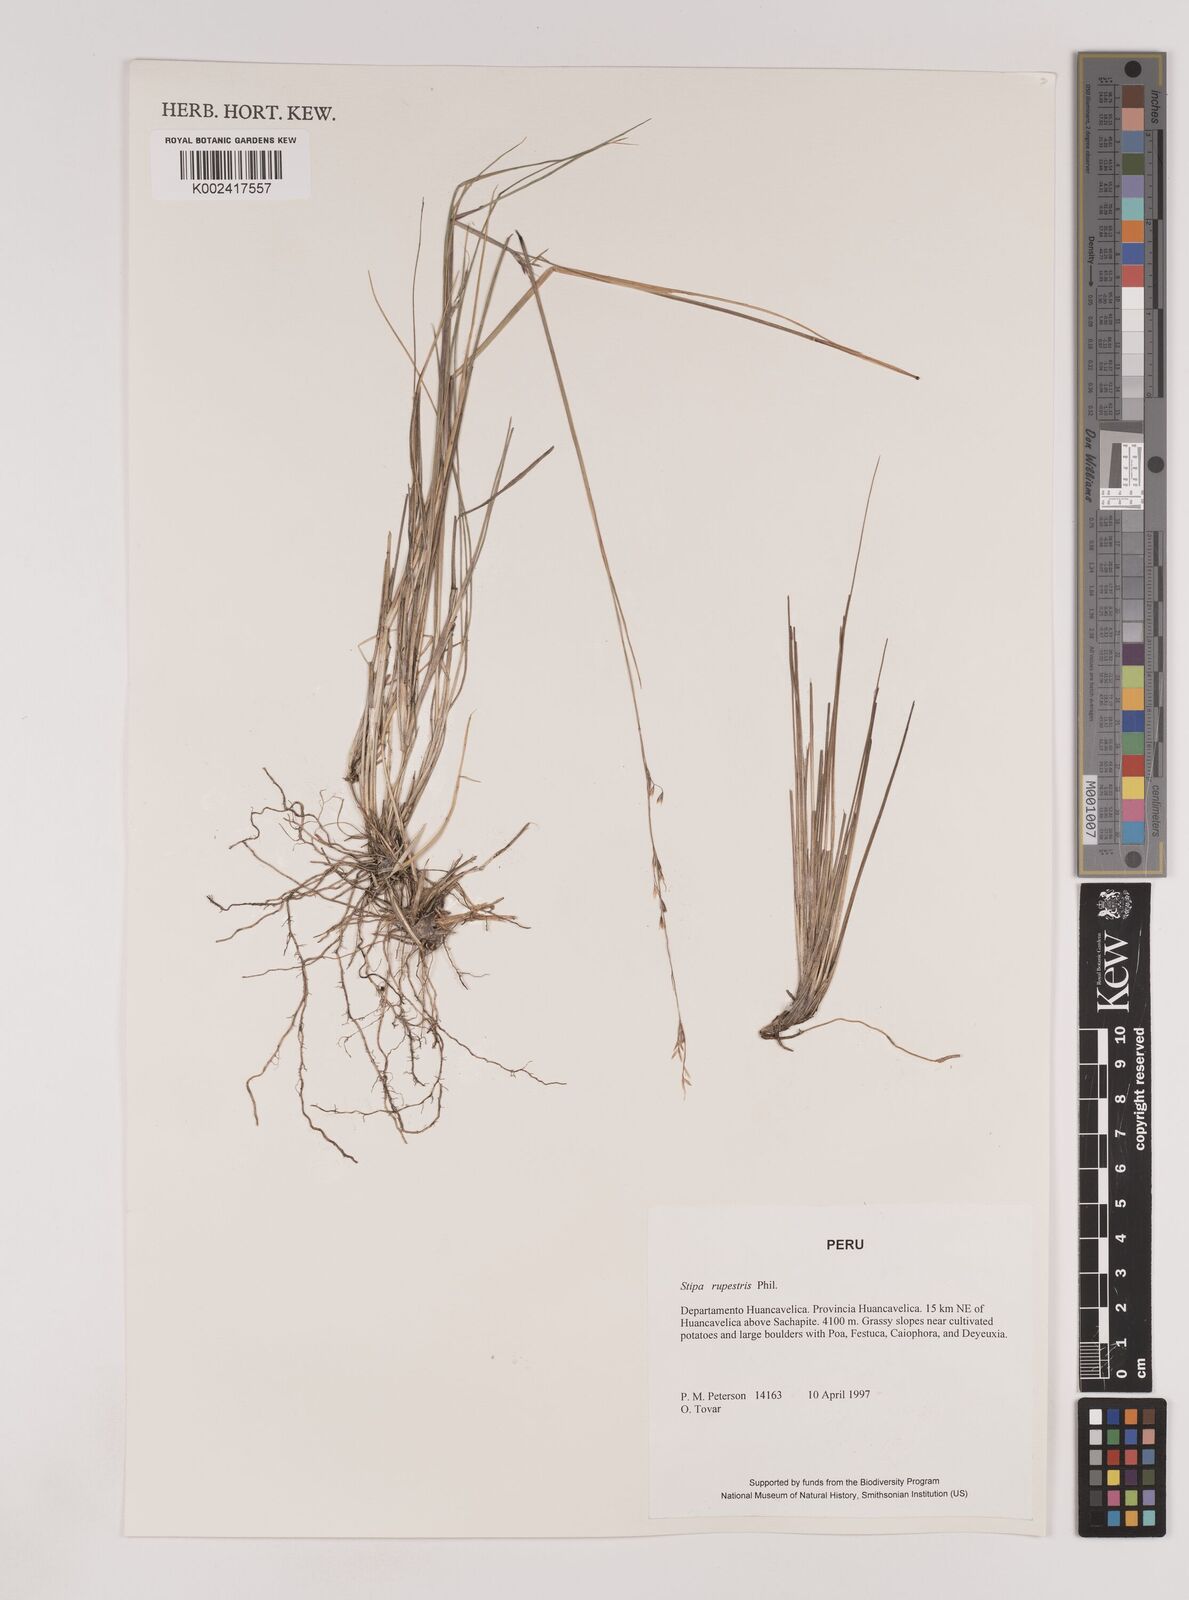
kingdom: Plantae
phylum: Tracheophyta
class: Liliopsida
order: Poales
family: Poaceae
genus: Nassella
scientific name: Nassella rupestris
